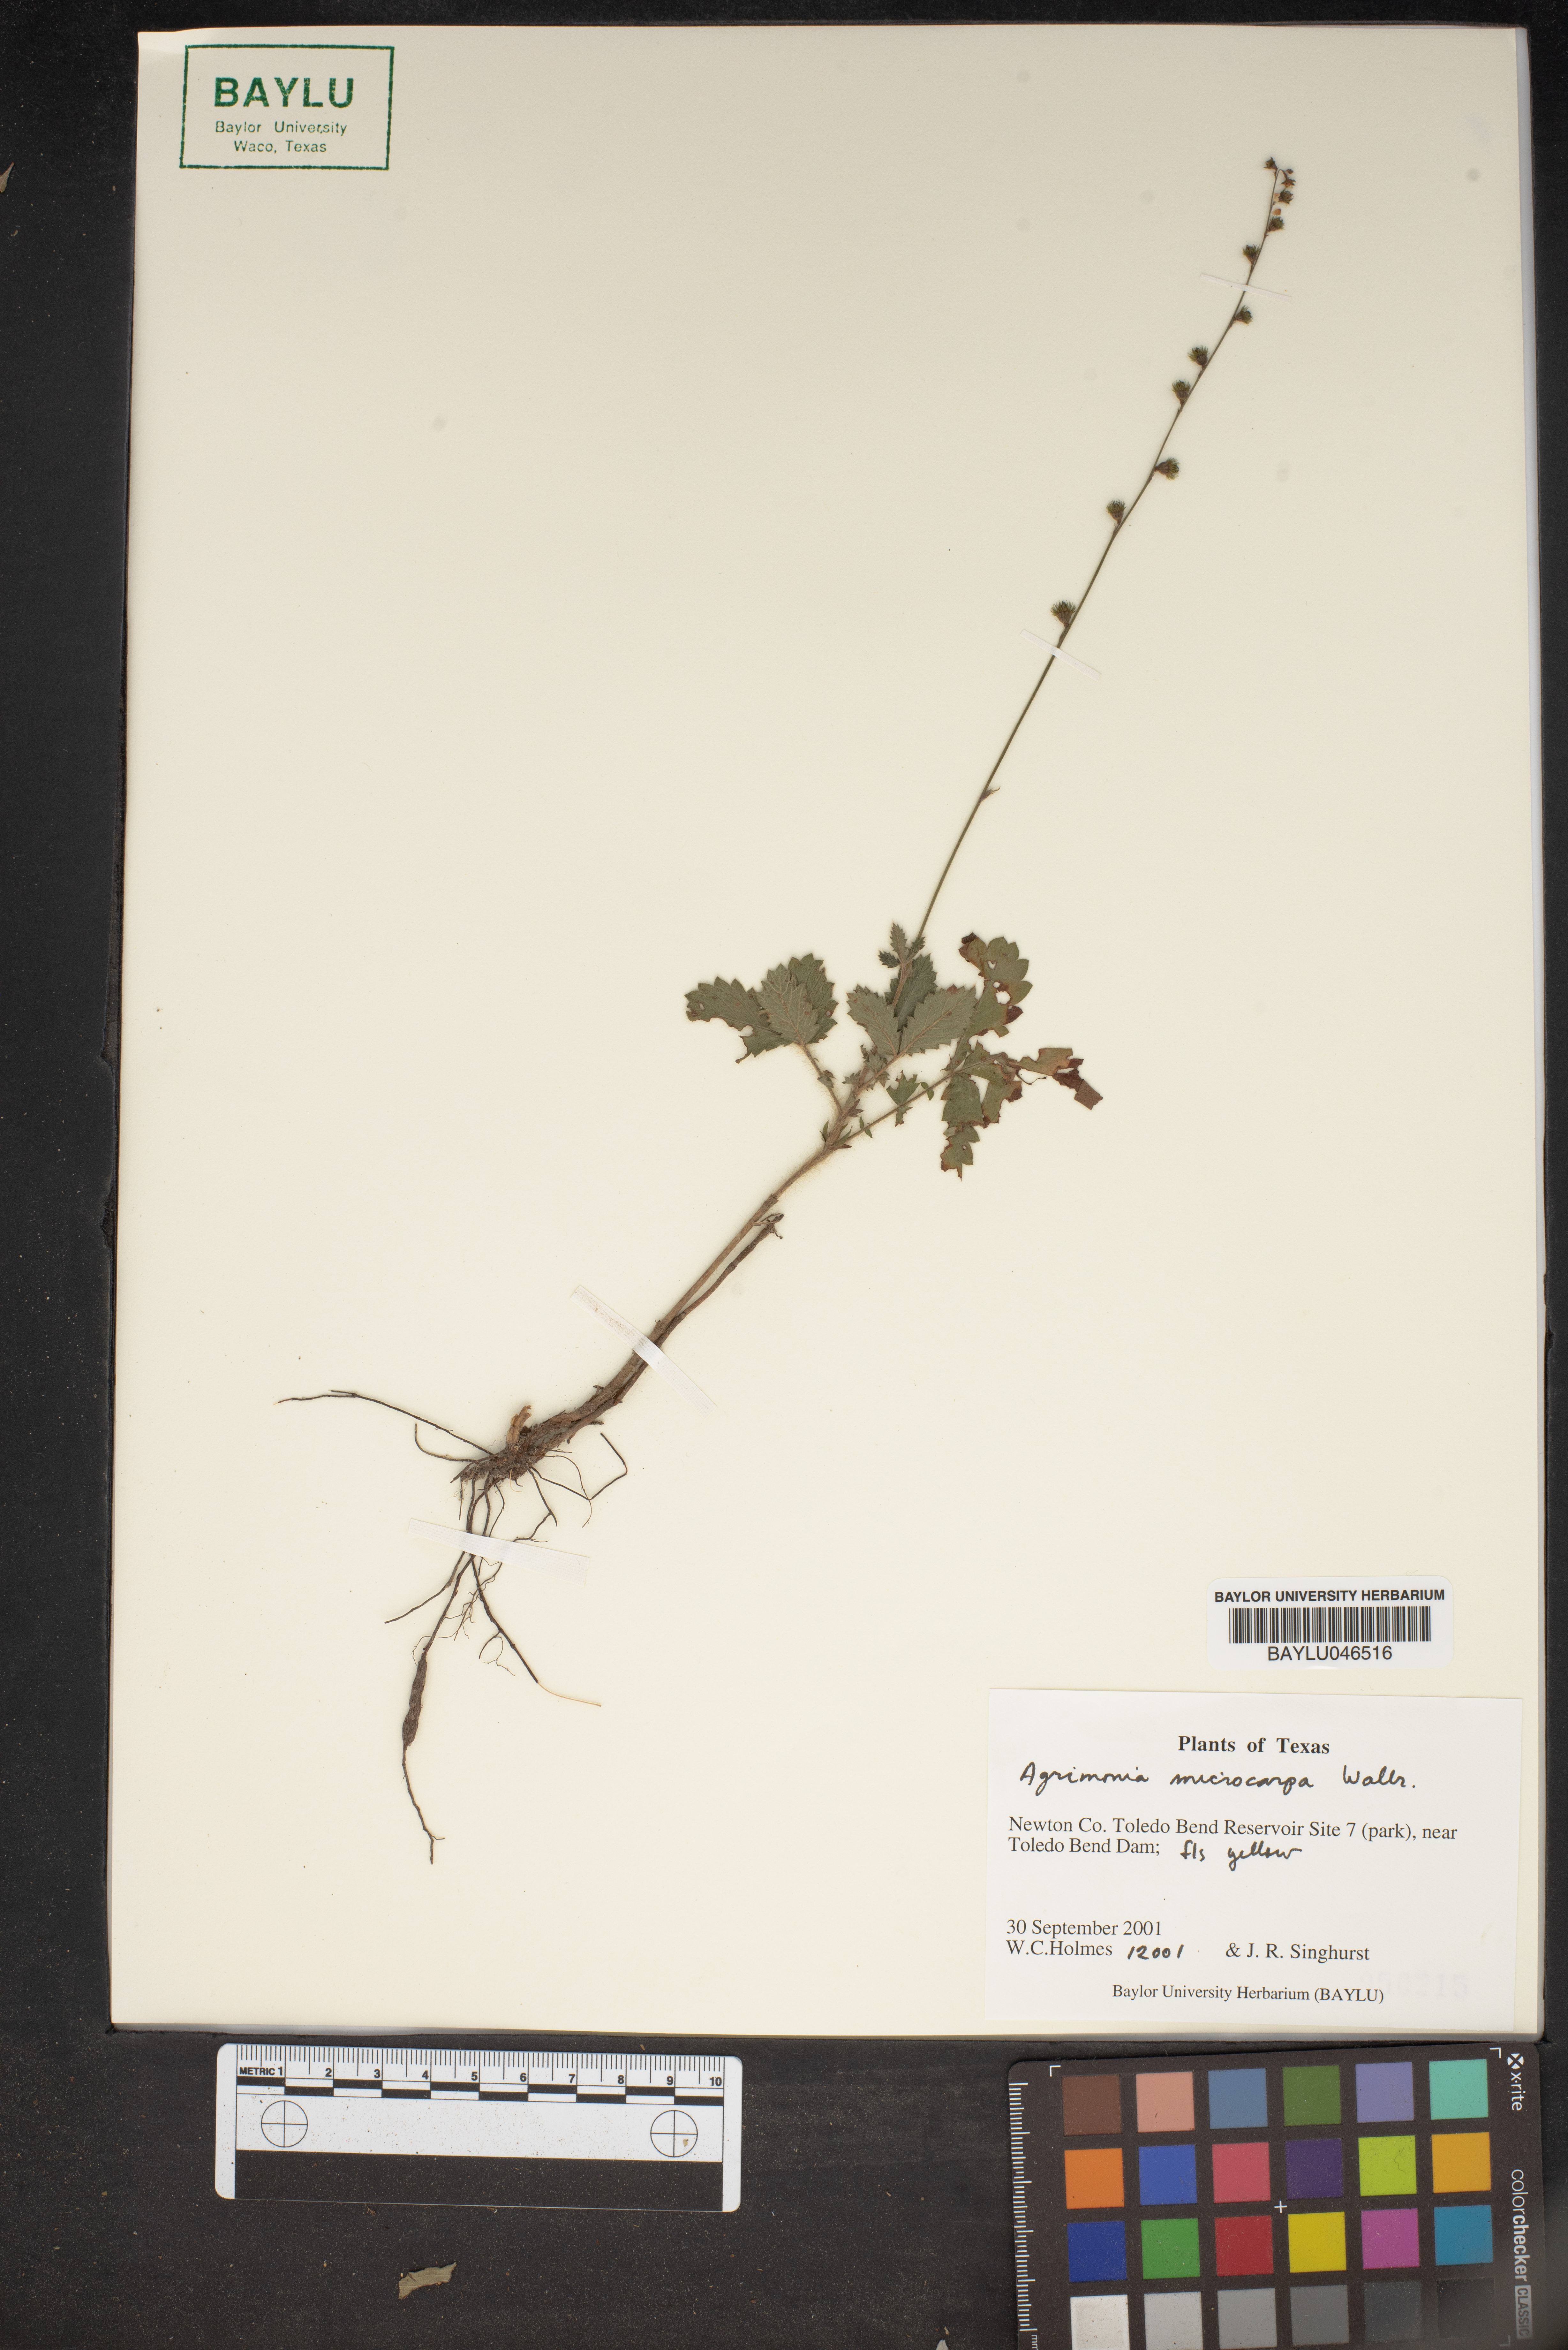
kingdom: Plantae
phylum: Tracheophyta
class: Magnoliopsida
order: Rosales
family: Rosaceae
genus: Agrimonia
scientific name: Agrimonia microcarpa
